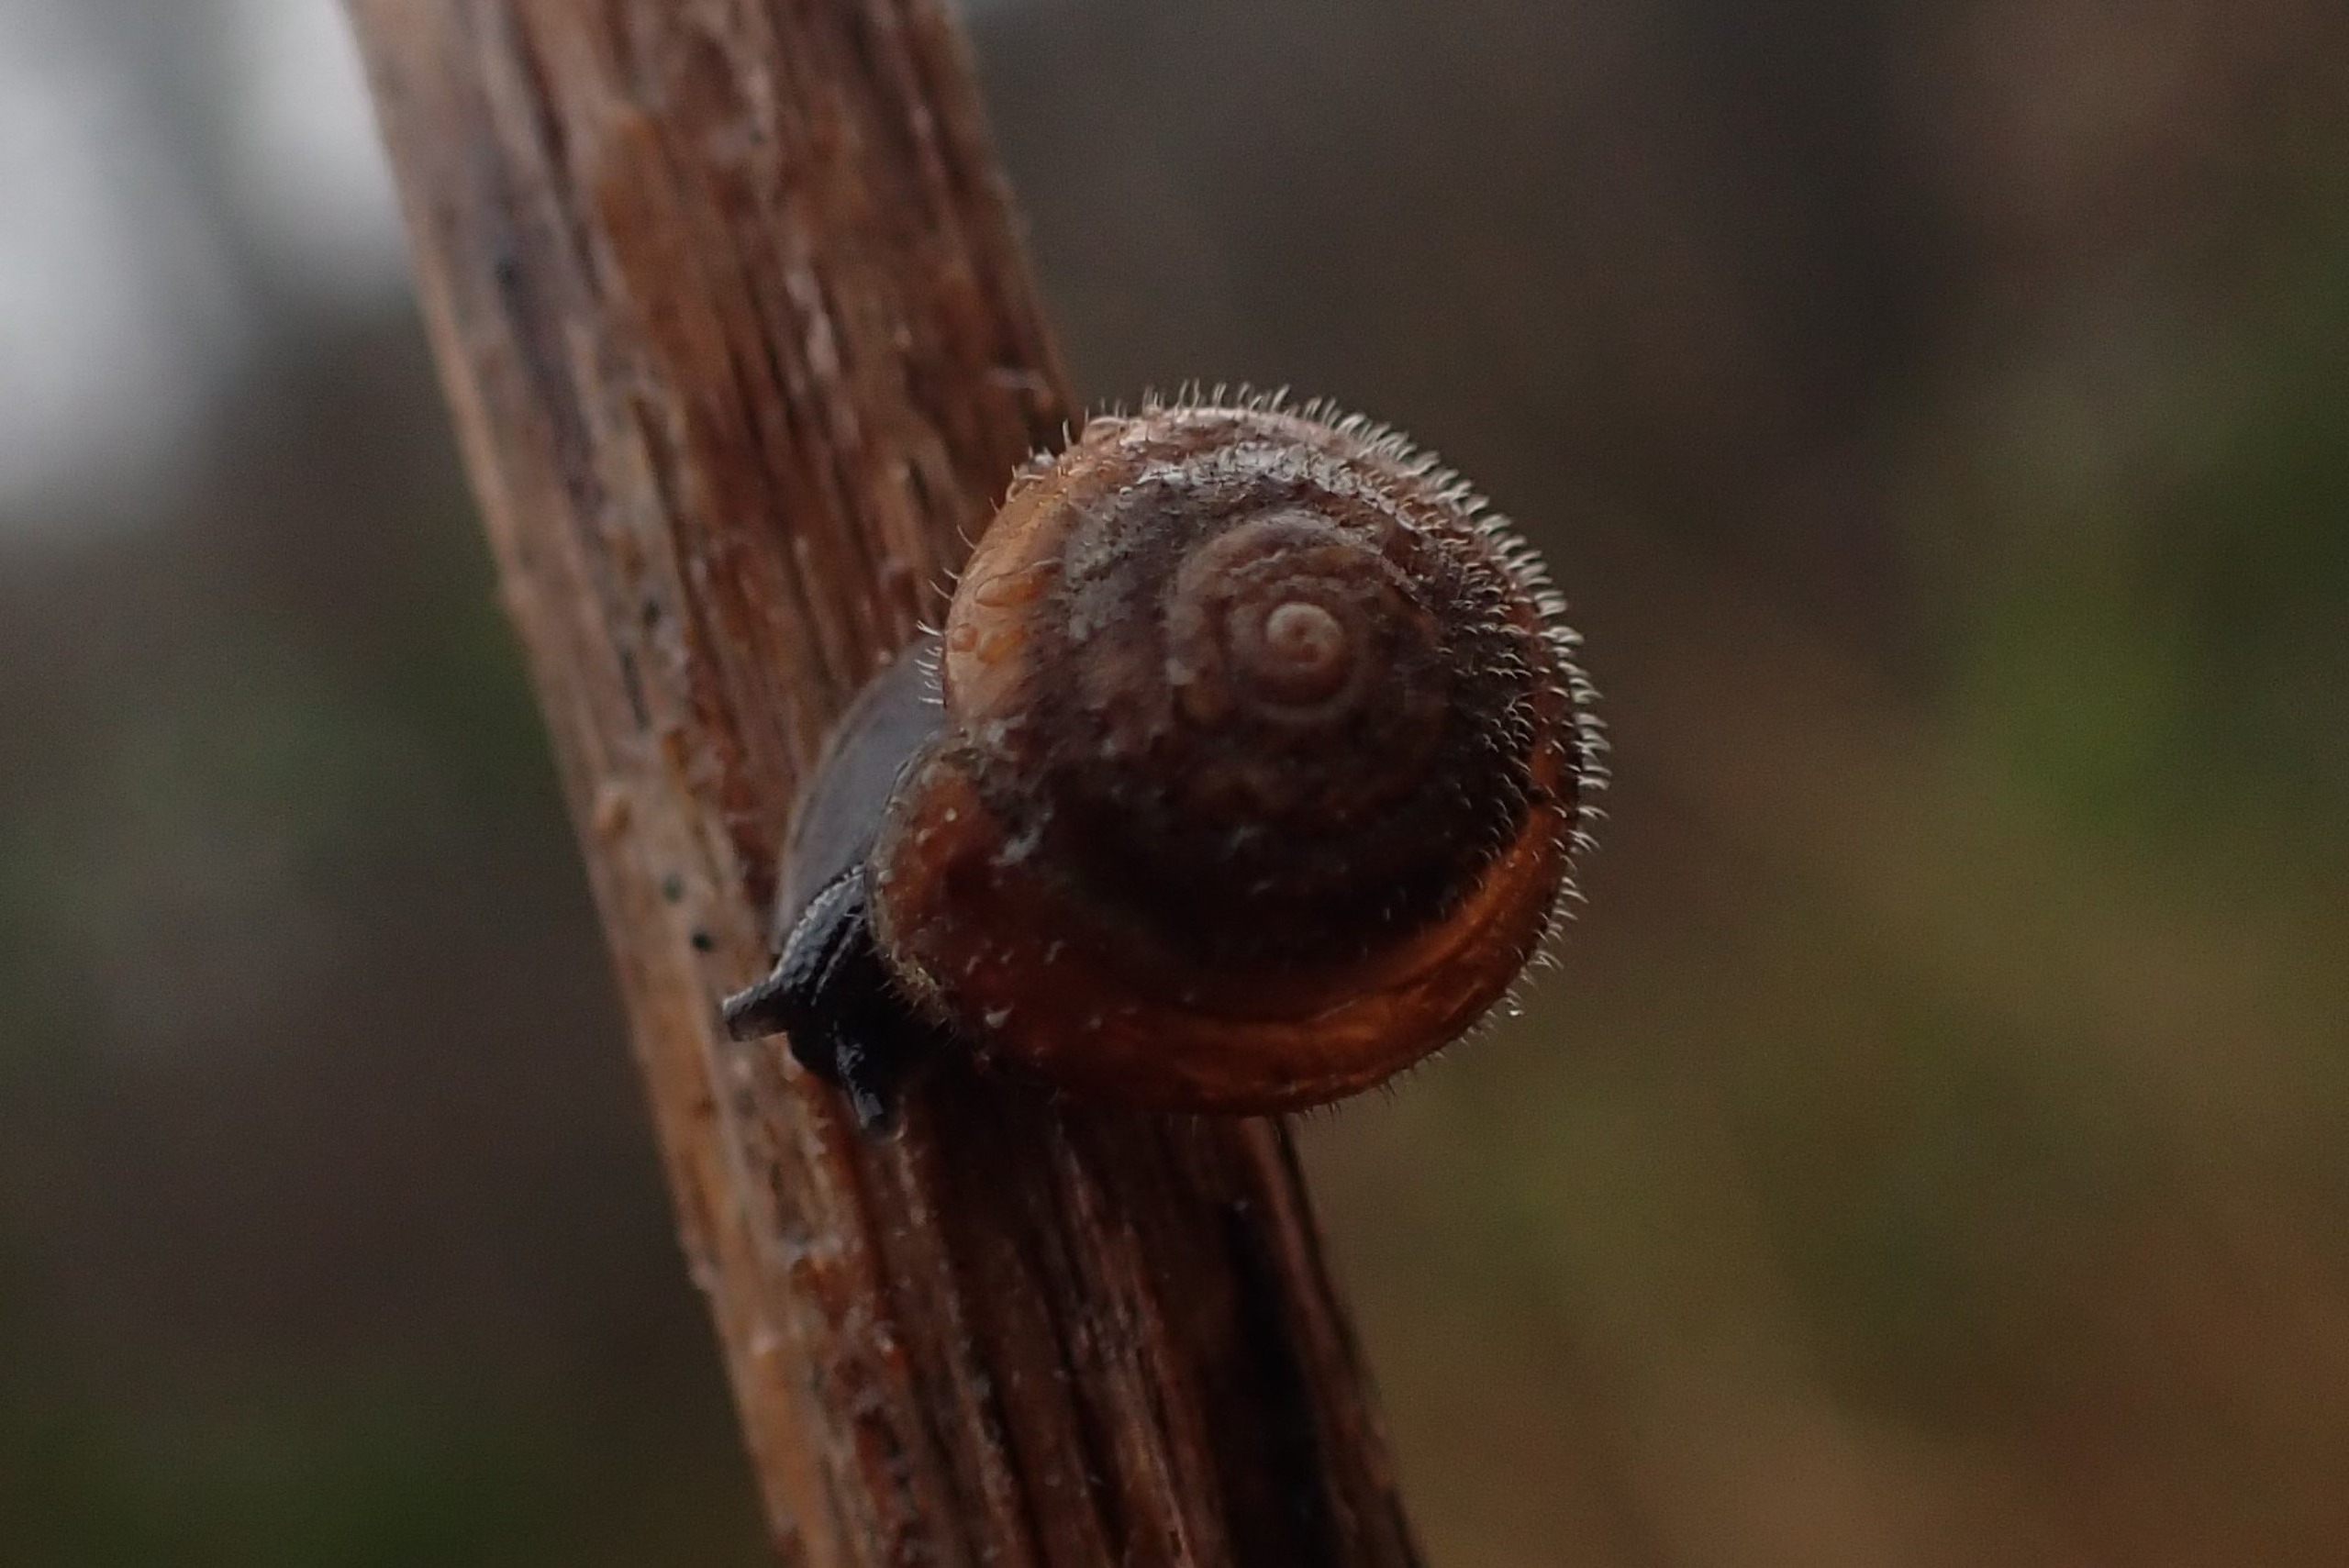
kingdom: Animalia
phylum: Mollusca
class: Gastropoda
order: Stylommatophora
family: Hygromiidae
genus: Trochulus
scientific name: Trochulus hispidus
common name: Håret snegl
